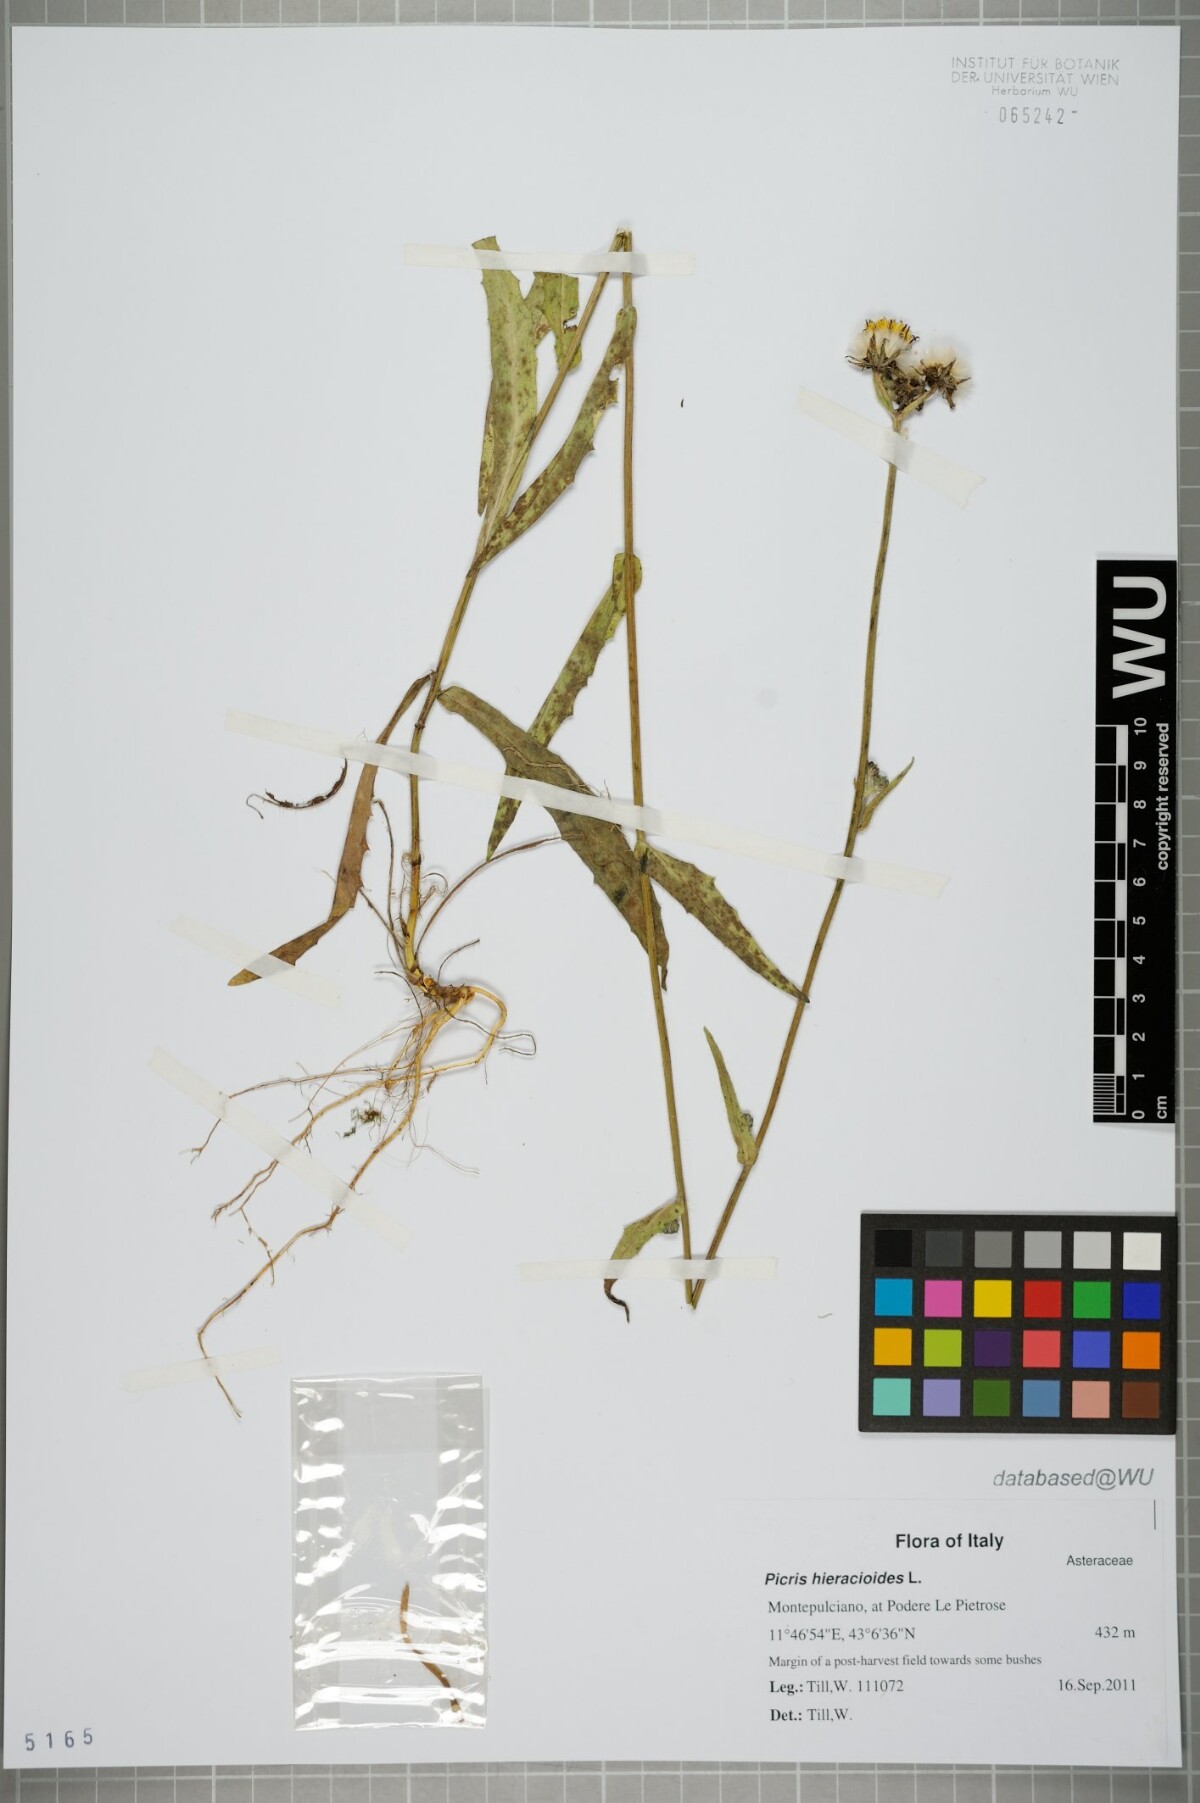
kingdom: Plantae
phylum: Tracheophyta
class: Magnoliopsida
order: Asterales
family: Asteraceae
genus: Picris
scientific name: Picris hieracioides
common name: Hawkweed oxtongue
